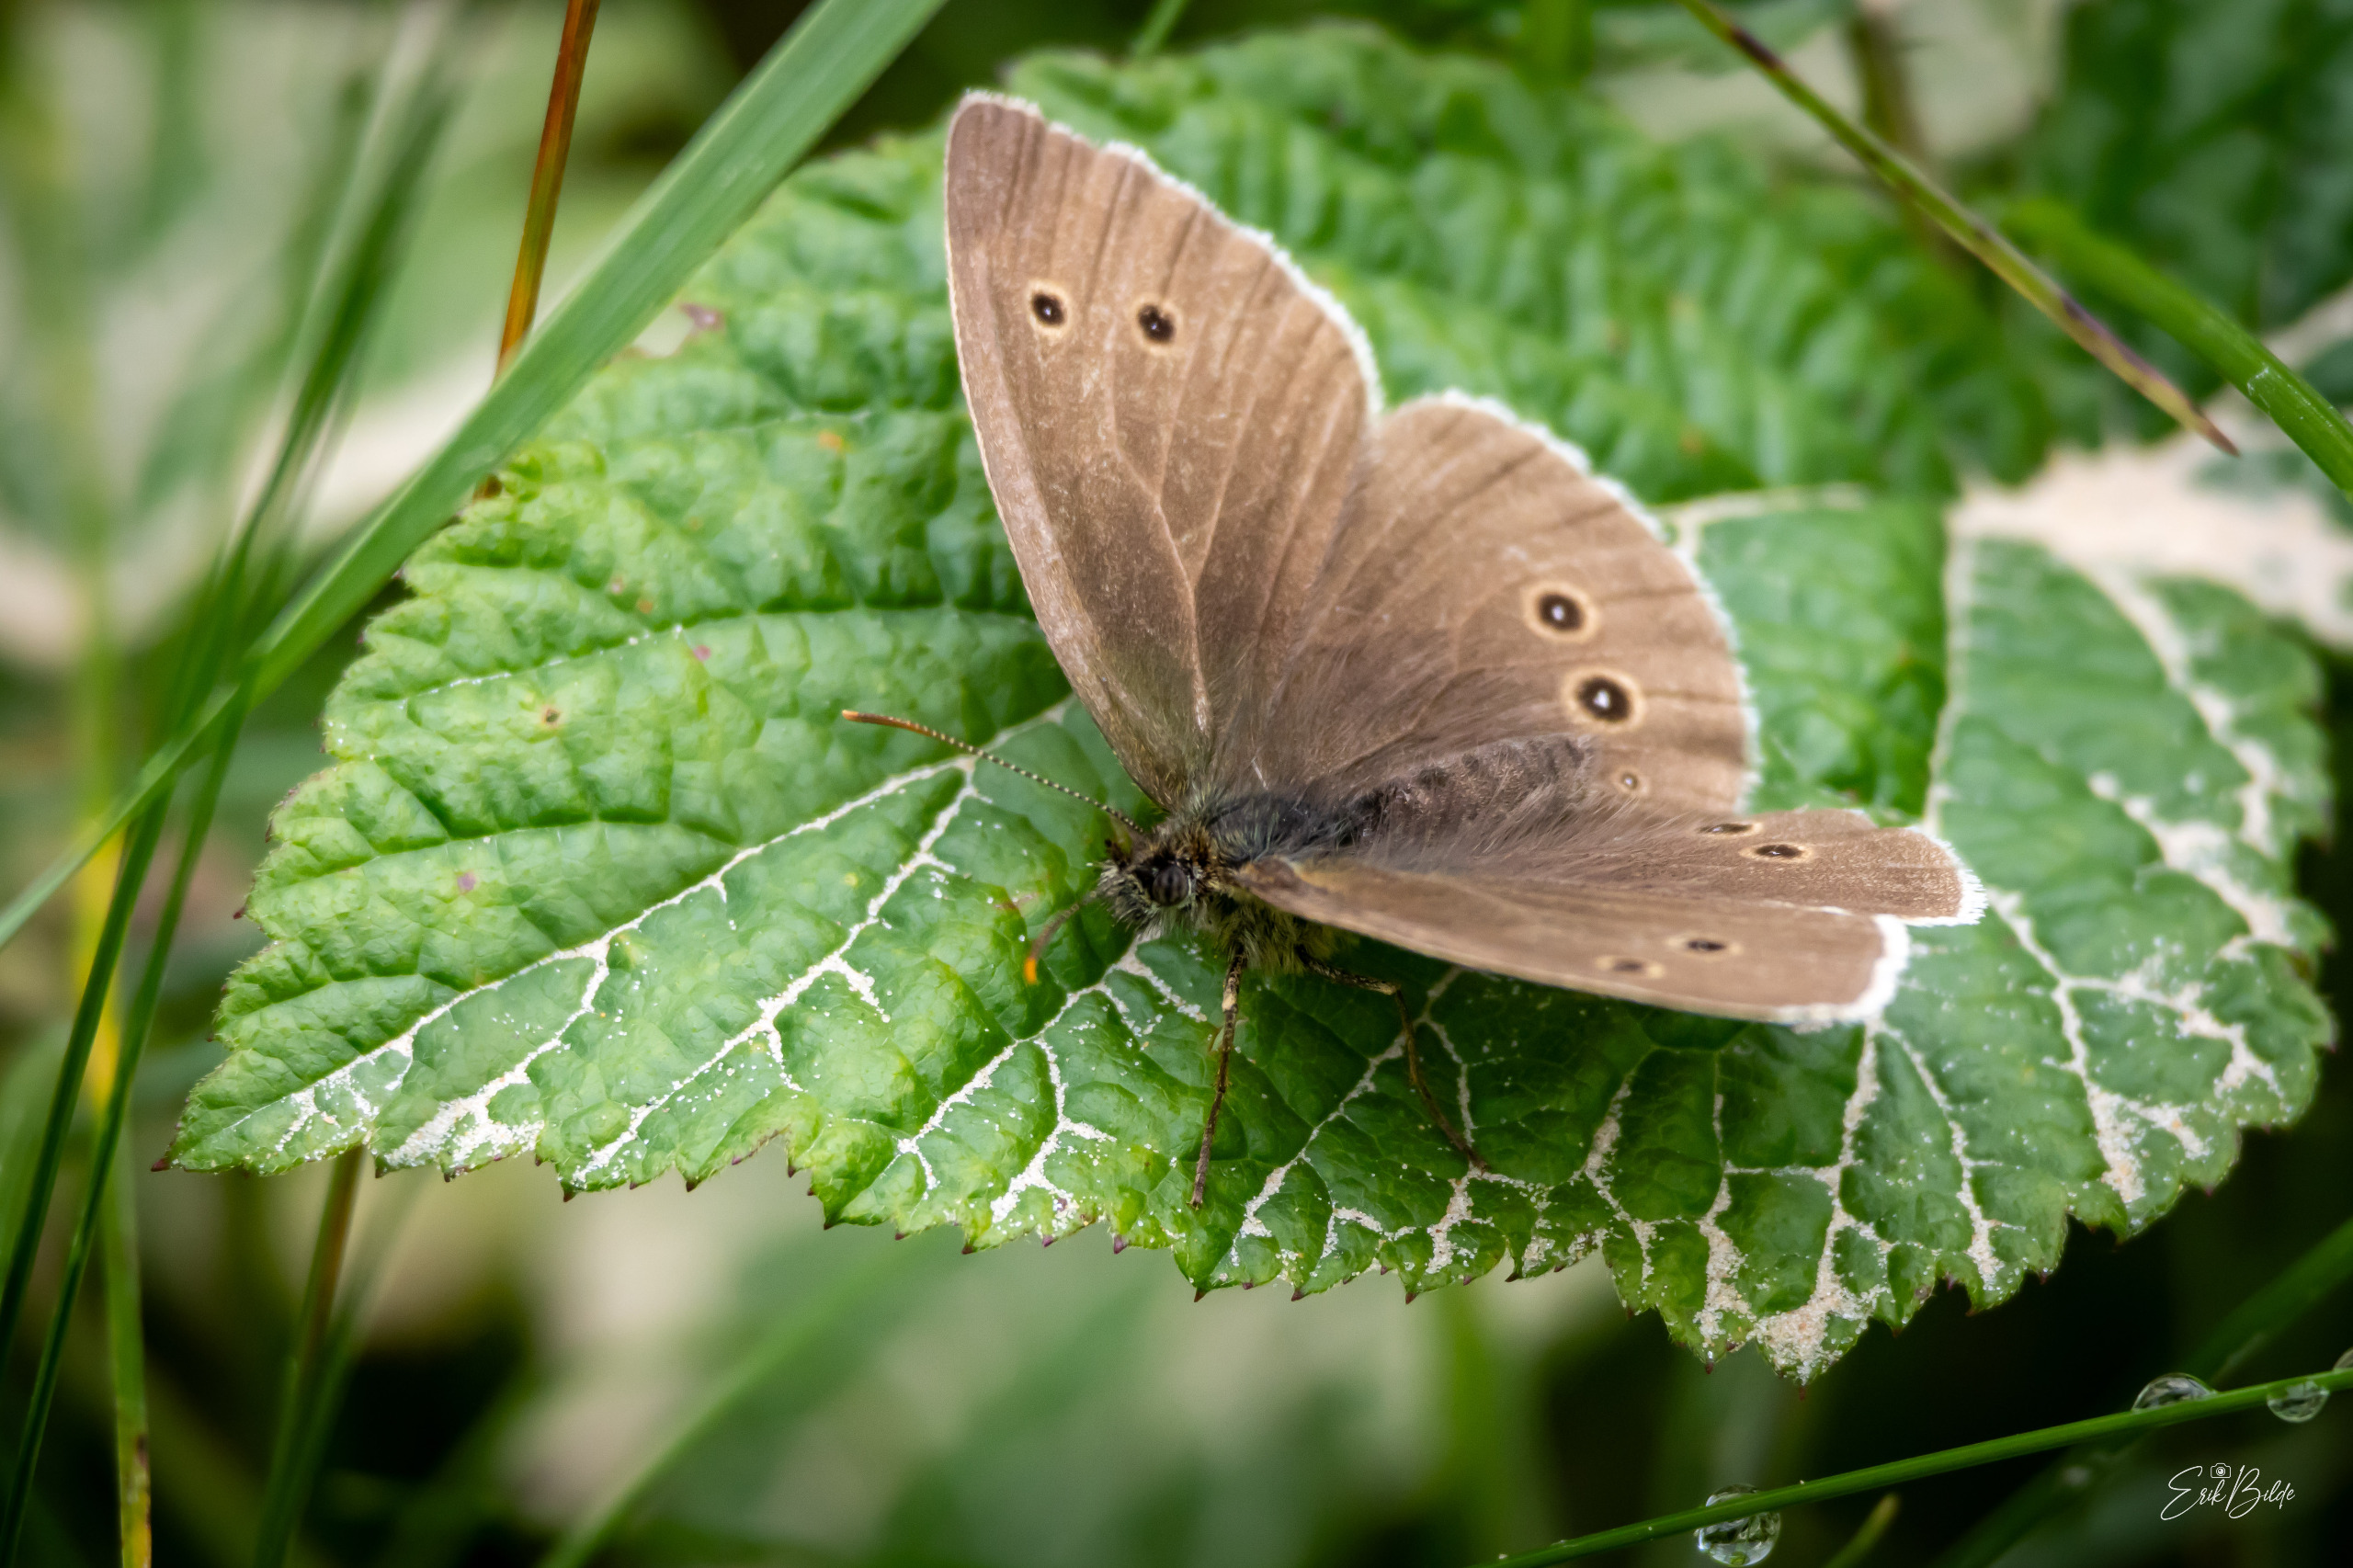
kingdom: Animalia
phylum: Arthropoda
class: Insecta
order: Lepidoptera
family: Nymphalidae
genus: Aphantopus
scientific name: Aphantopus hyperantus
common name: Engrandøje
